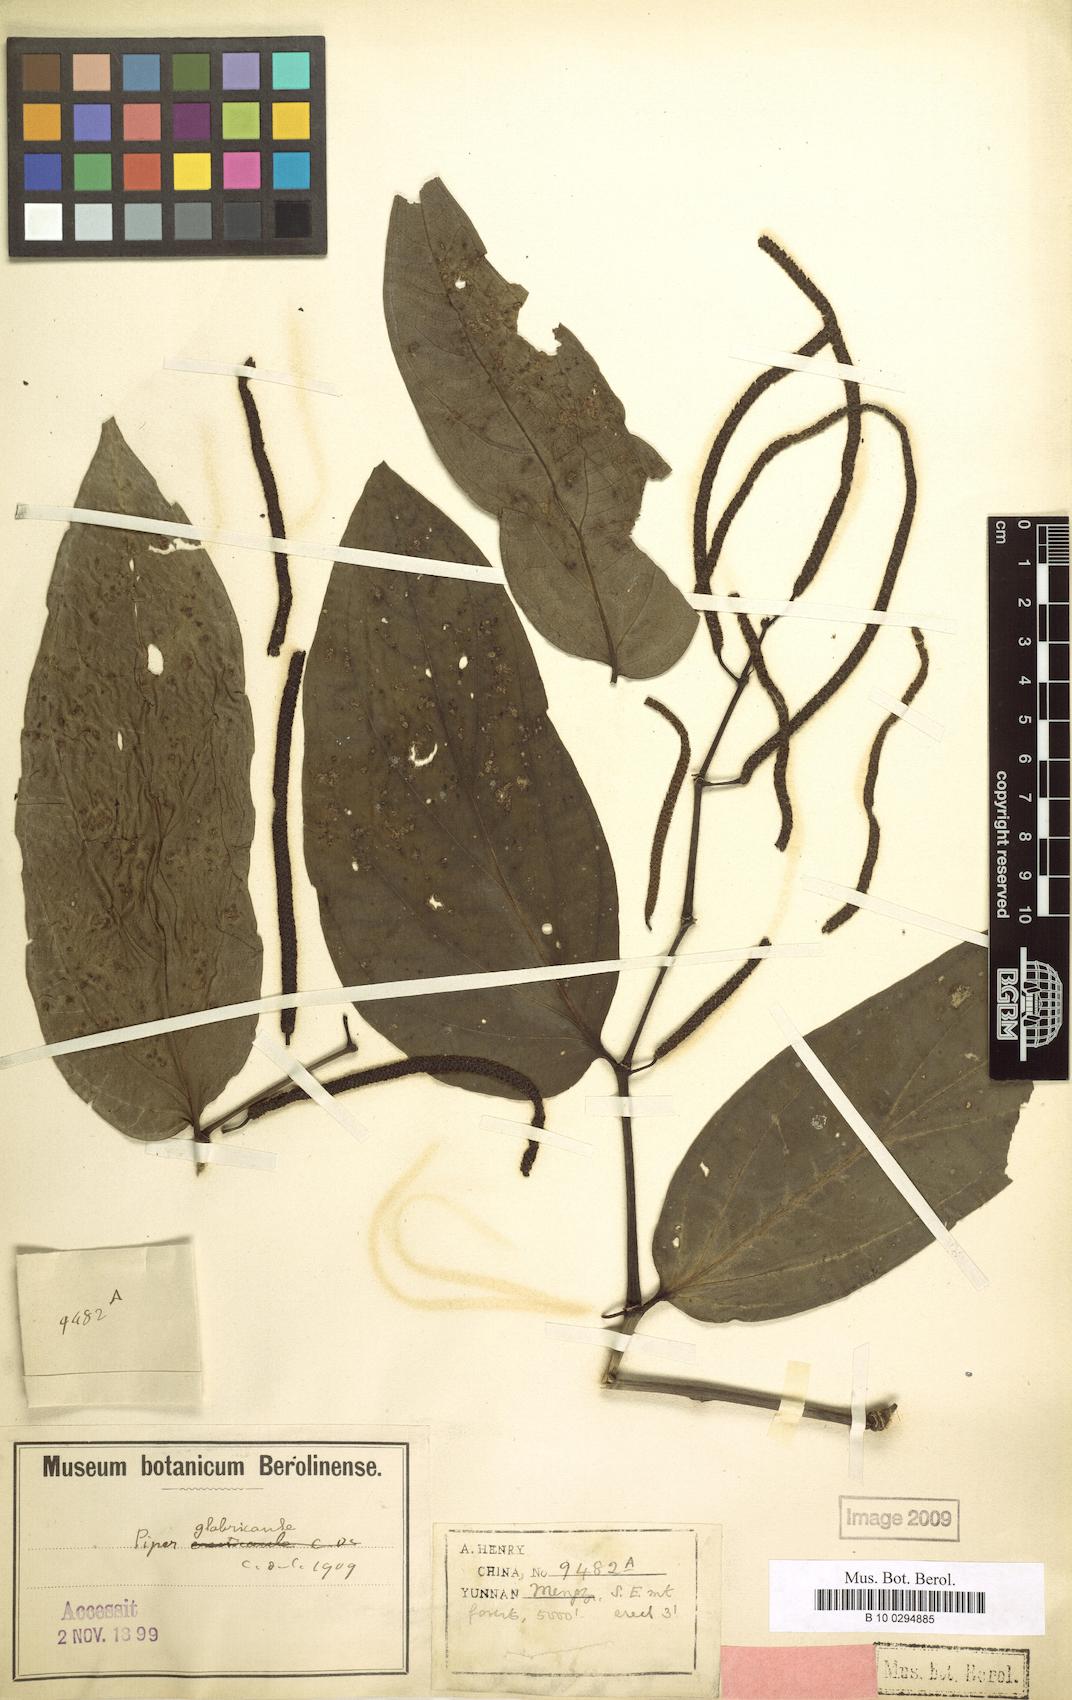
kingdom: Plantae
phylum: Tracheophyta
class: Magnoliopsida
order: Piperales
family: Piperaceae
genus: Piper
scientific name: Piper boehmeriifolium
